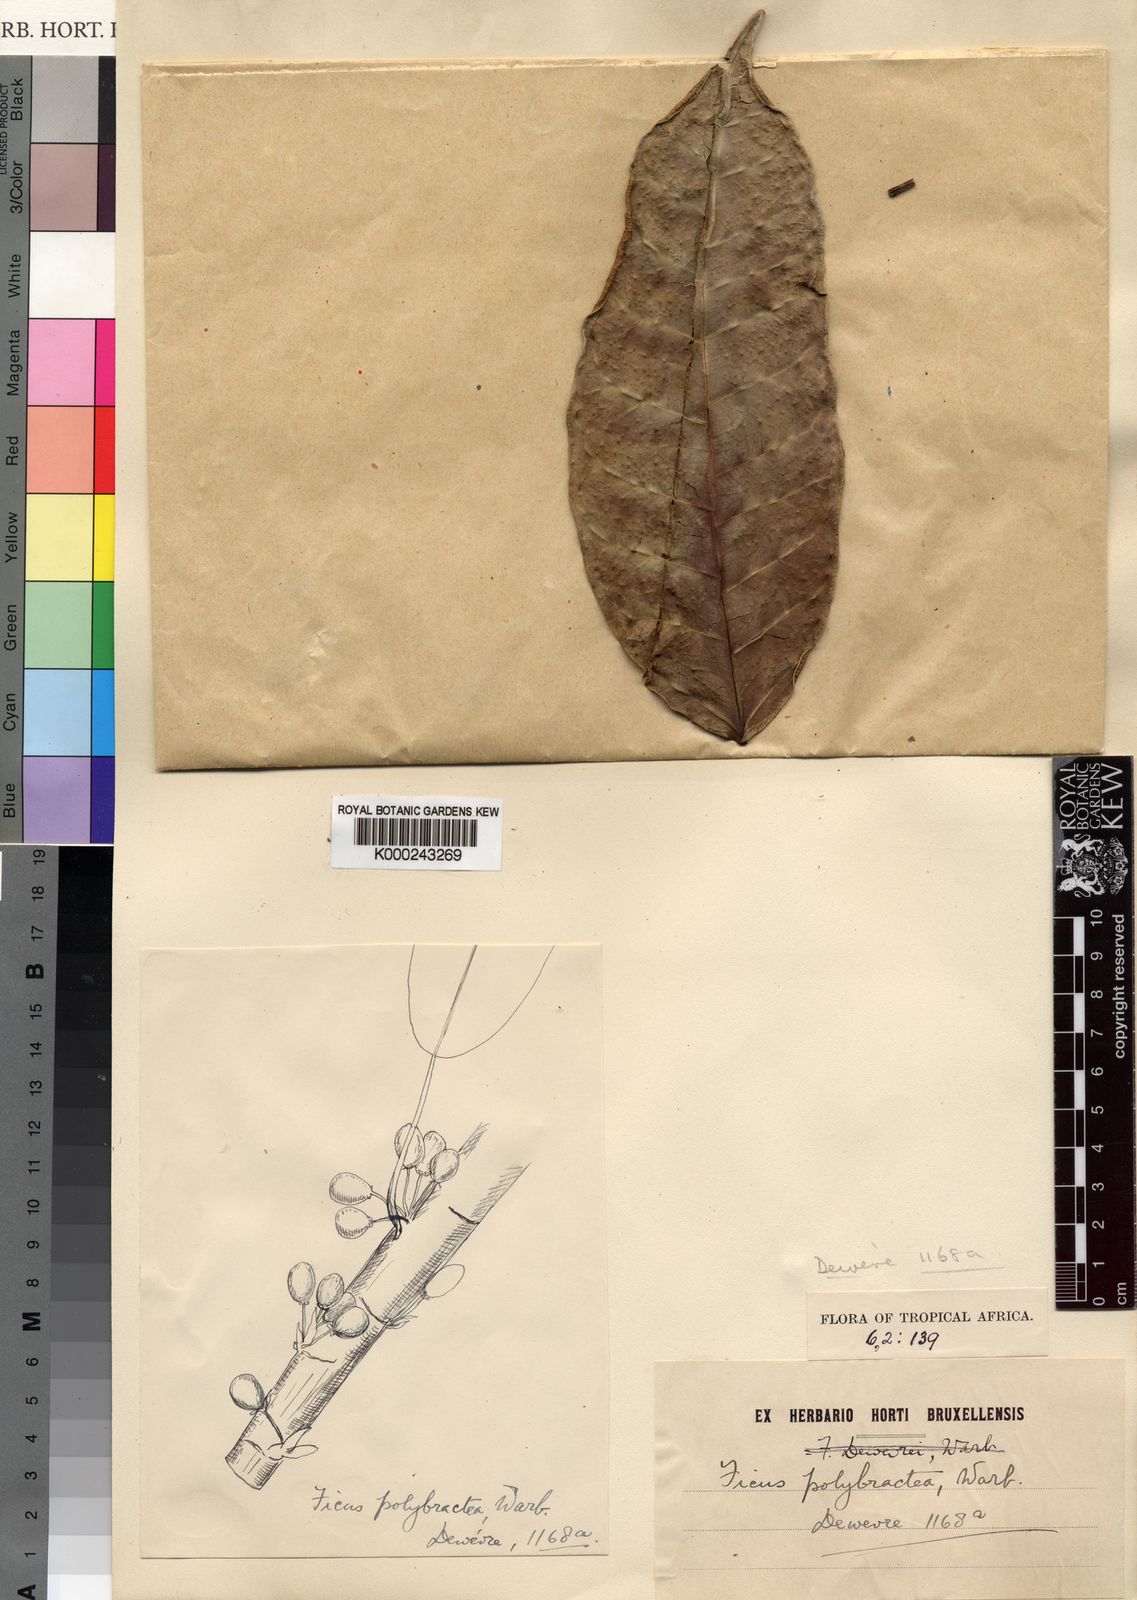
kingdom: Plantae
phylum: Tracheophyta
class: Magnoliopsida
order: Rosales
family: Moraceae
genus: Ficus
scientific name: Ficus
